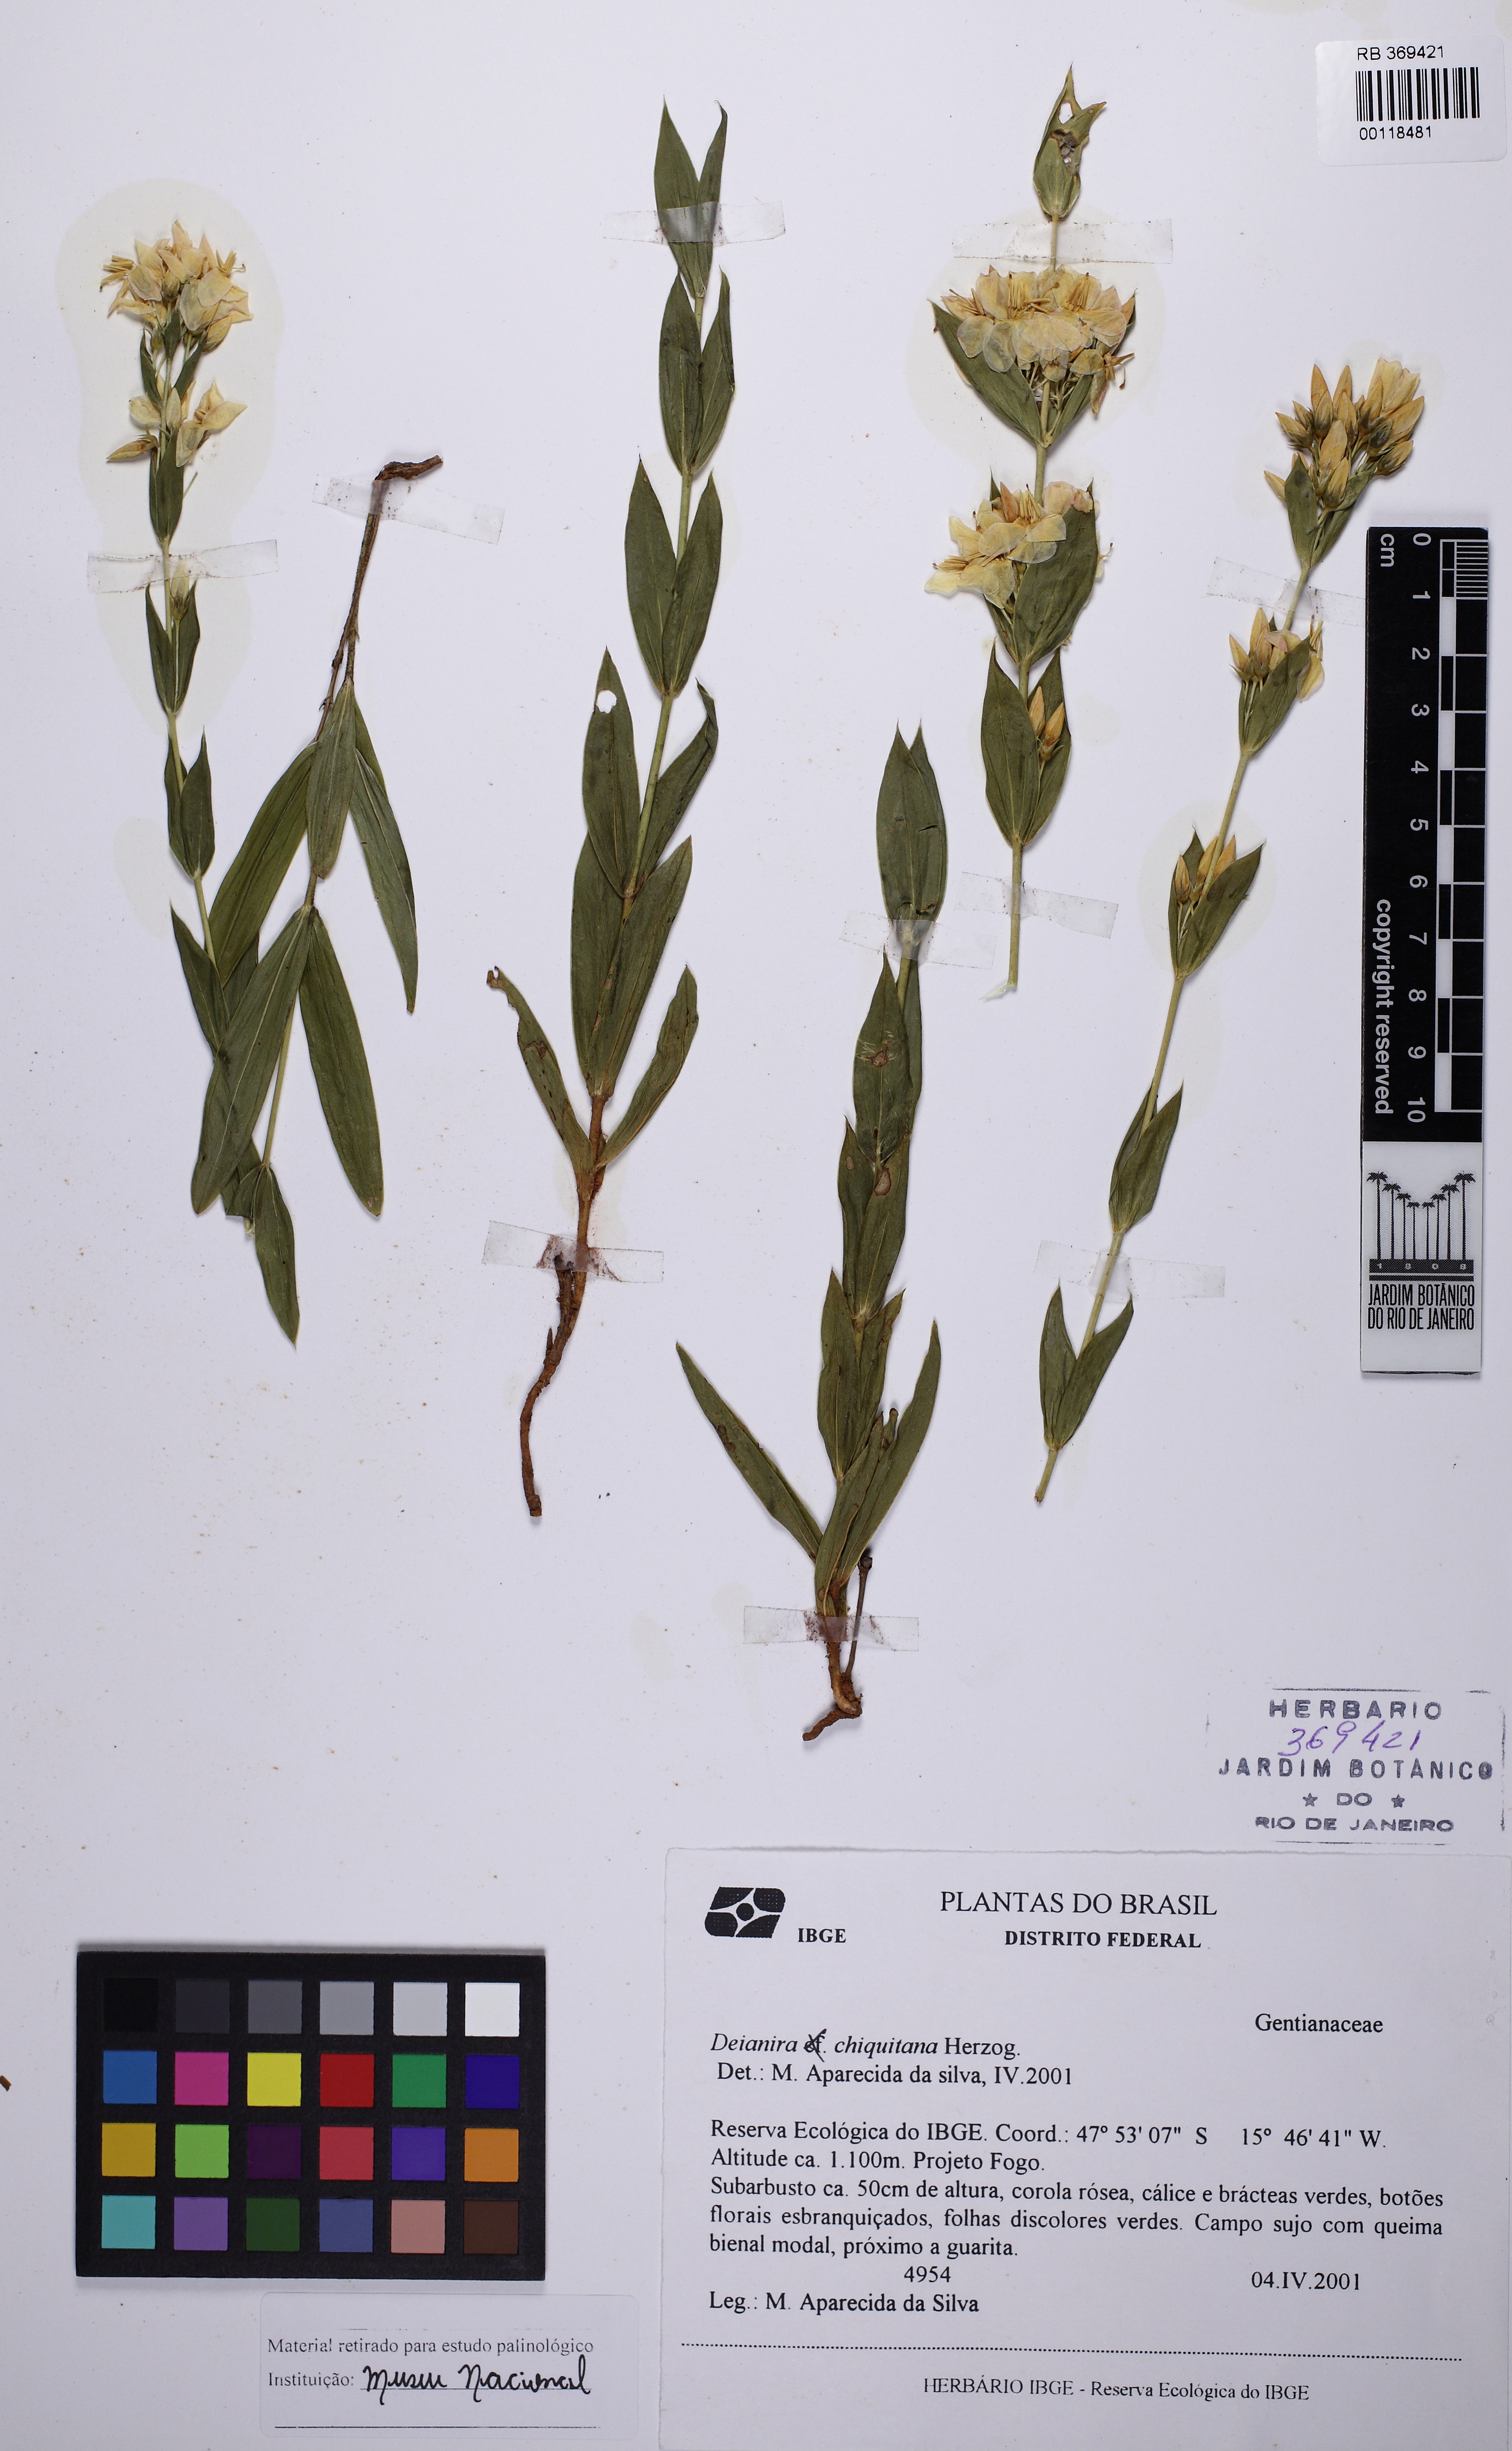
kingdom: Plantae
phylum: Tracheophyta
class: Magnoliopsida
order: Gentianales
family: Gentianaceae
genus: Deianira
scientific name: Deianira chiquitana
